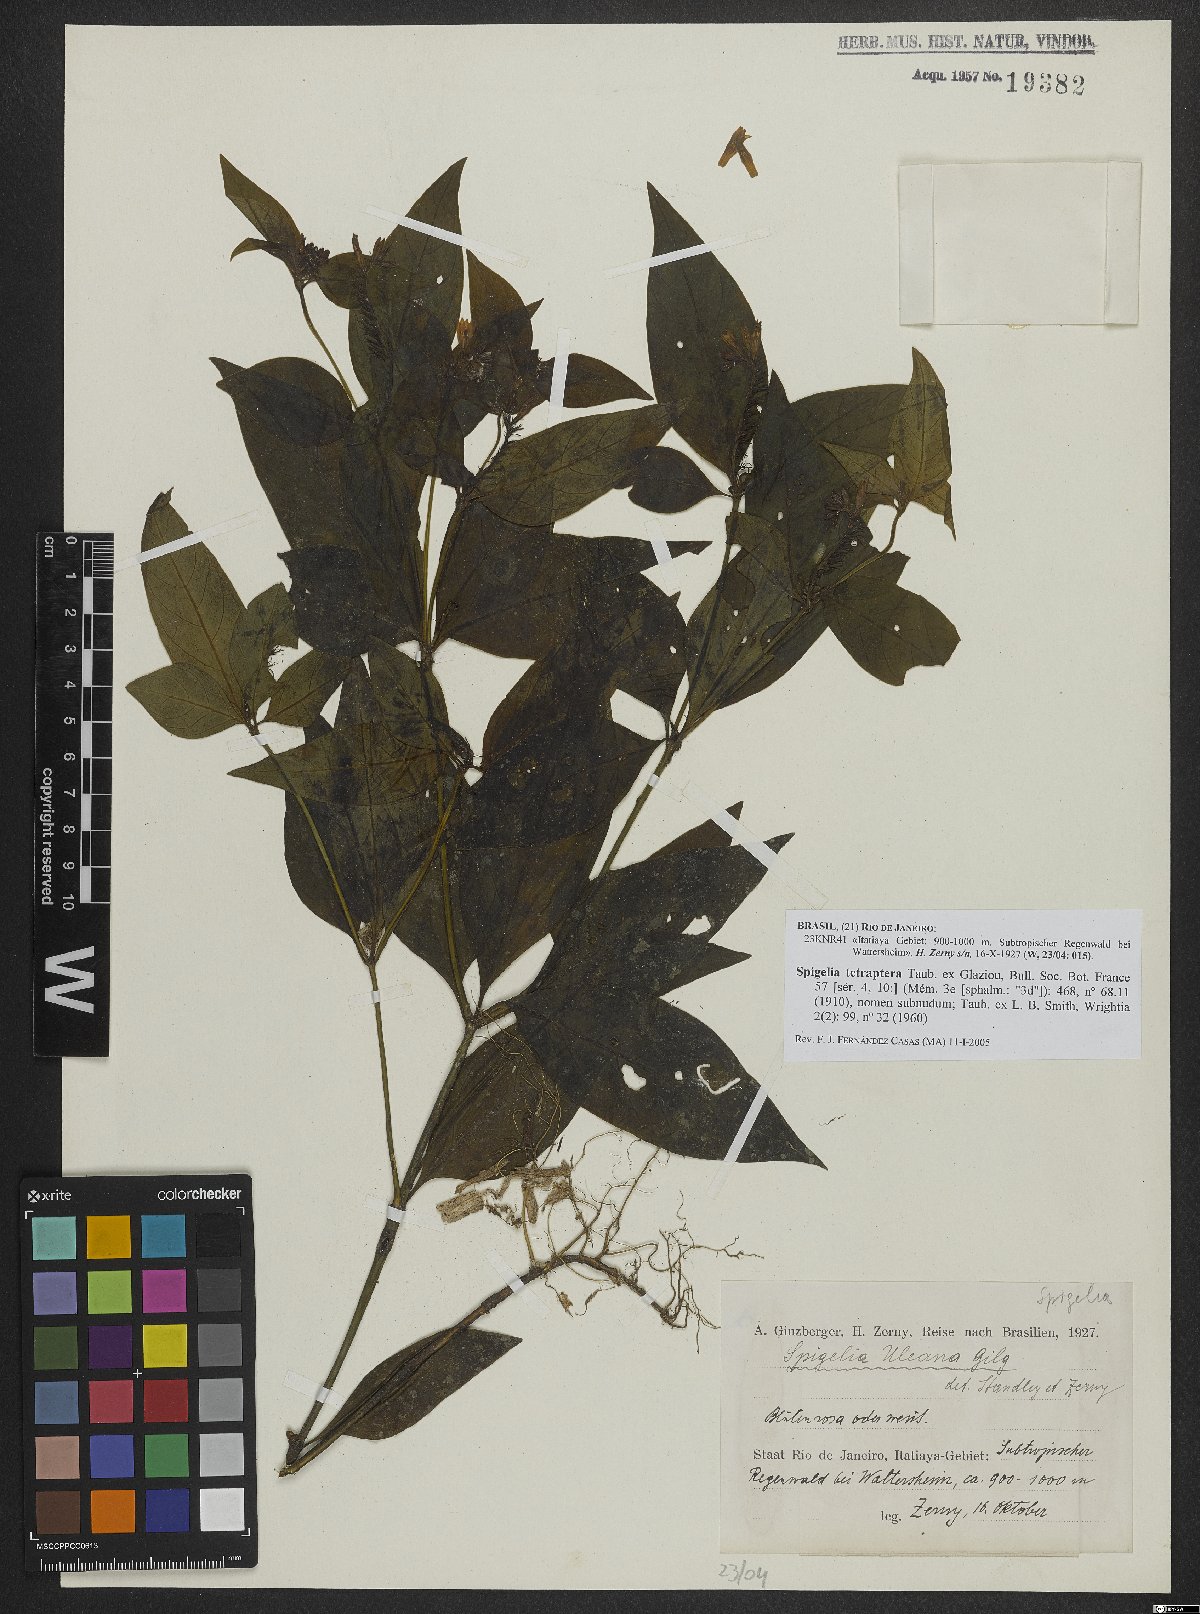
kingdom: Plantae
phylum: Tracheophyta
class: Magnoliopsida
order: Gentianales
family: Loganiaceae
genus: Spigelia
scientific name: Spigelia tetraptera
